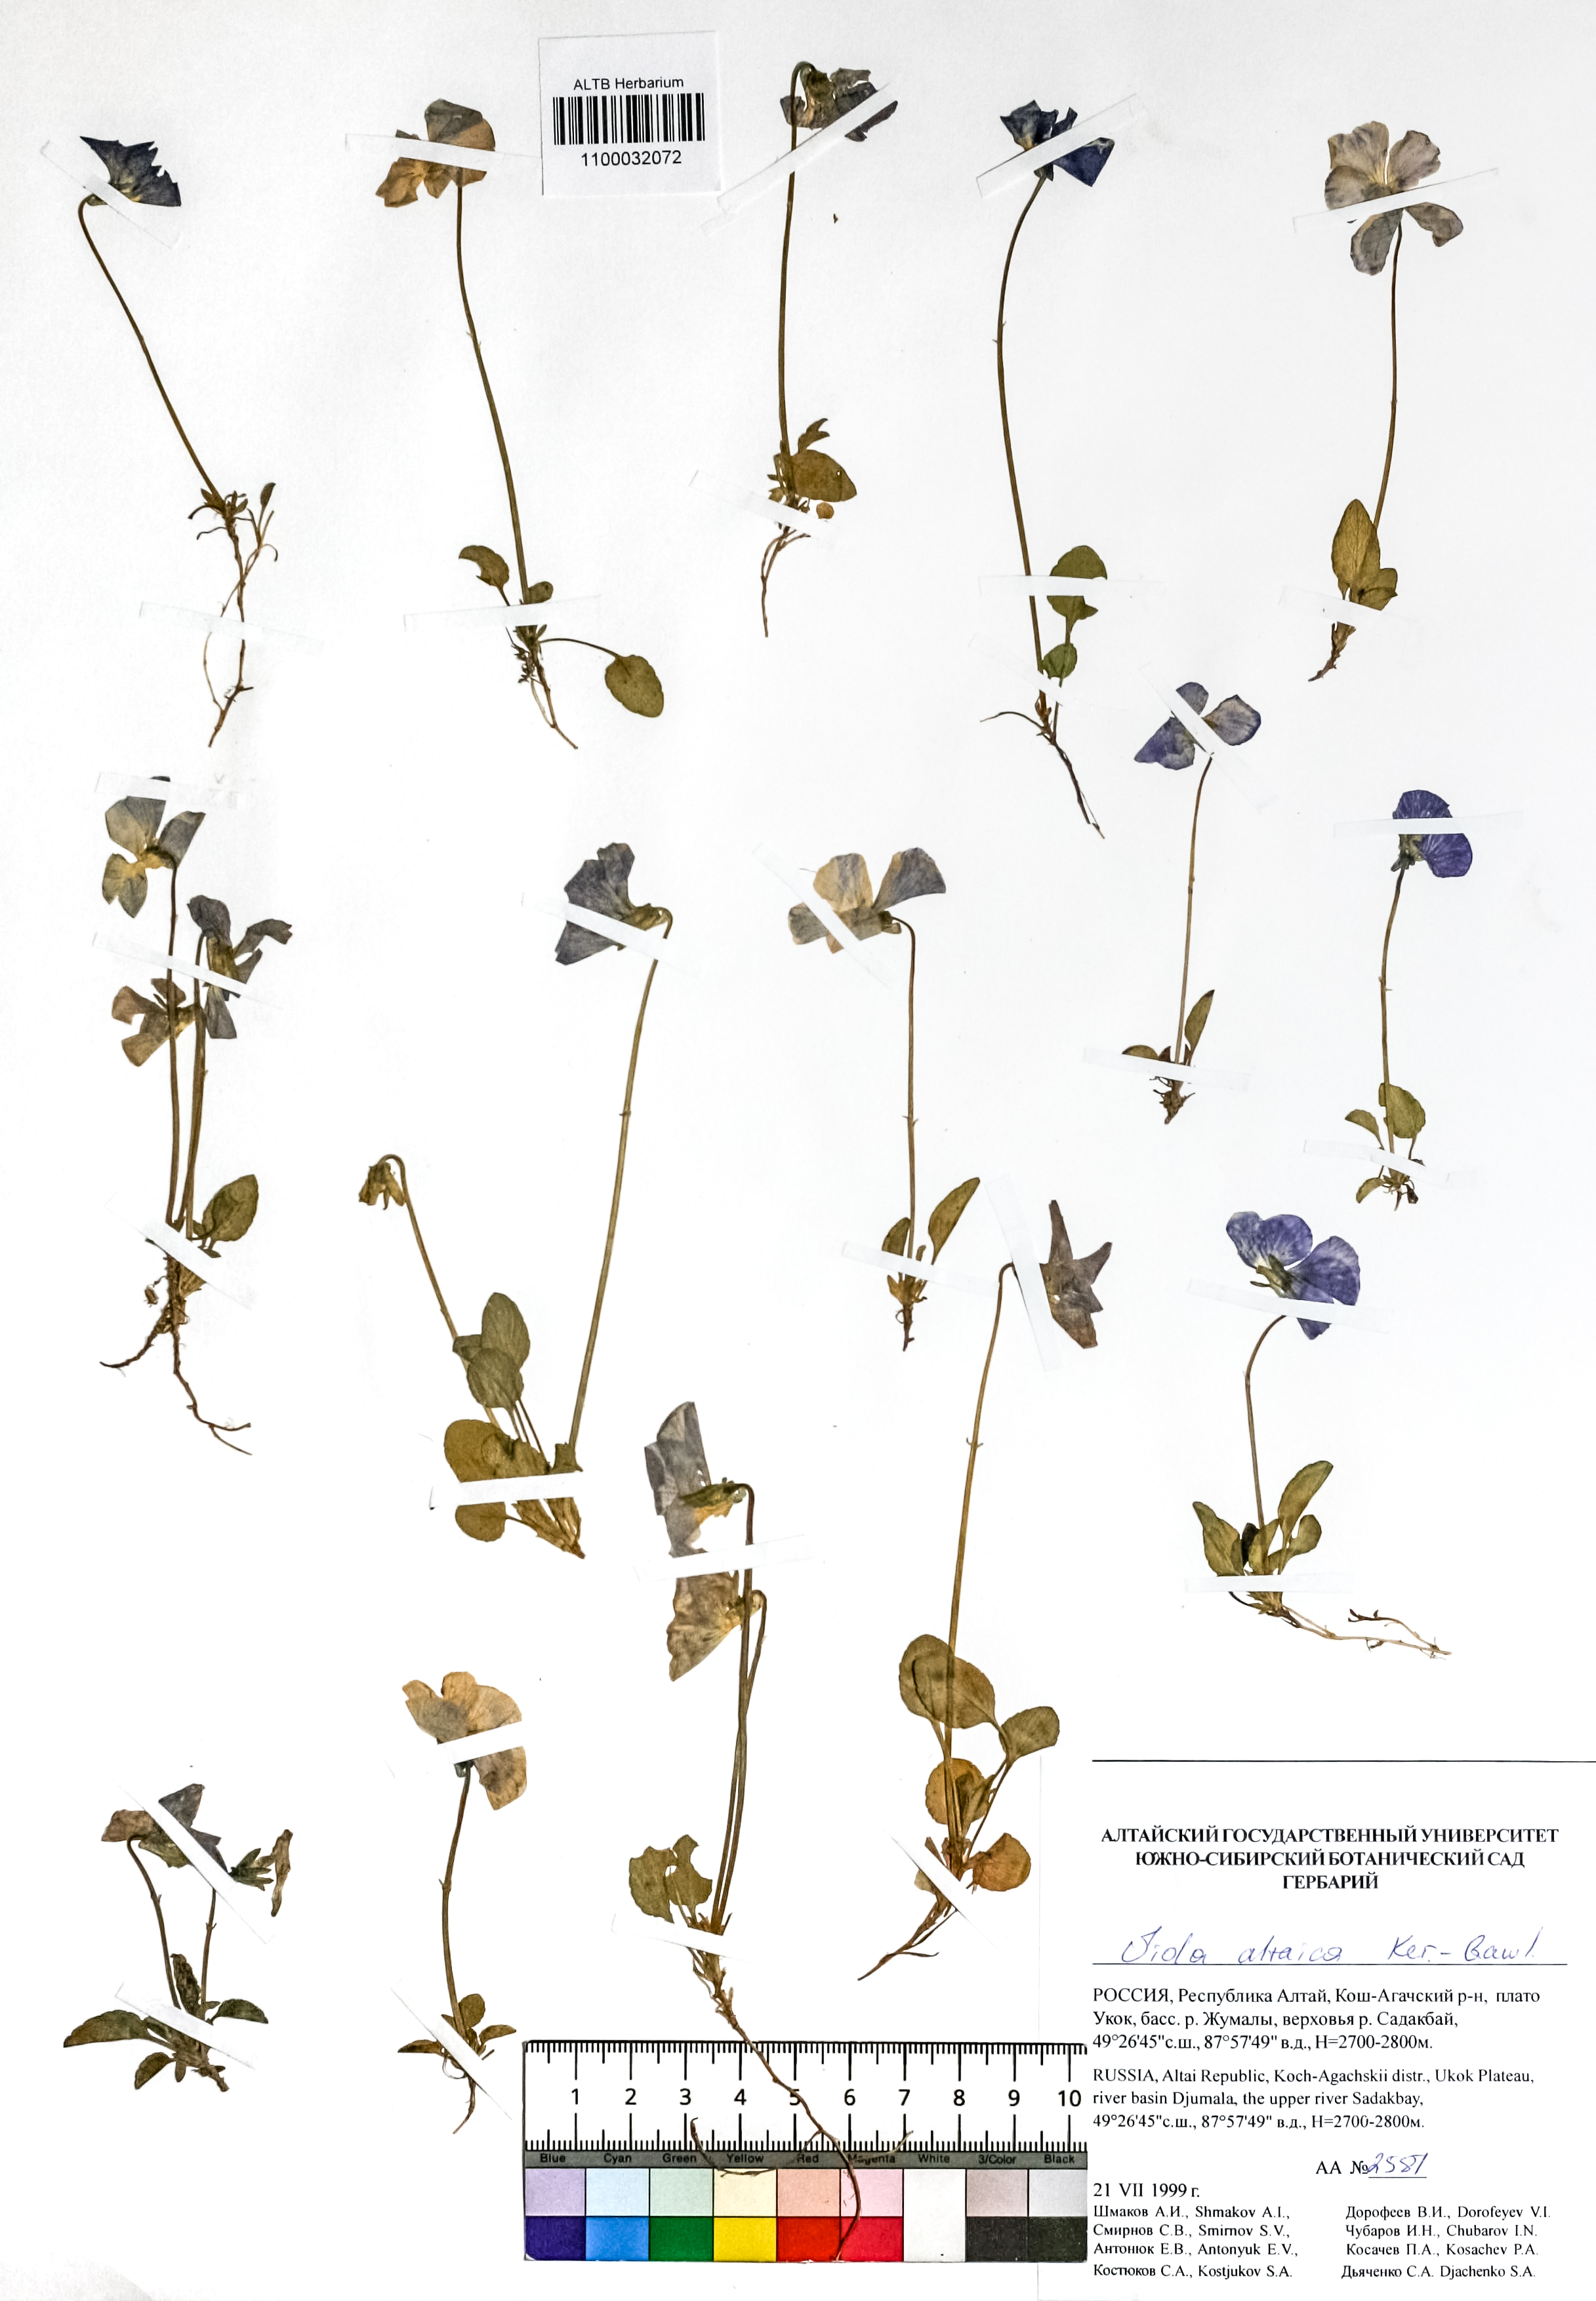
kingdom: Plantae
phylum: Tracheophyta
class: Magnoliopsida
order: Malpighiales
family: Violaceae
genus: Viola
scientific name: Viola altaica
